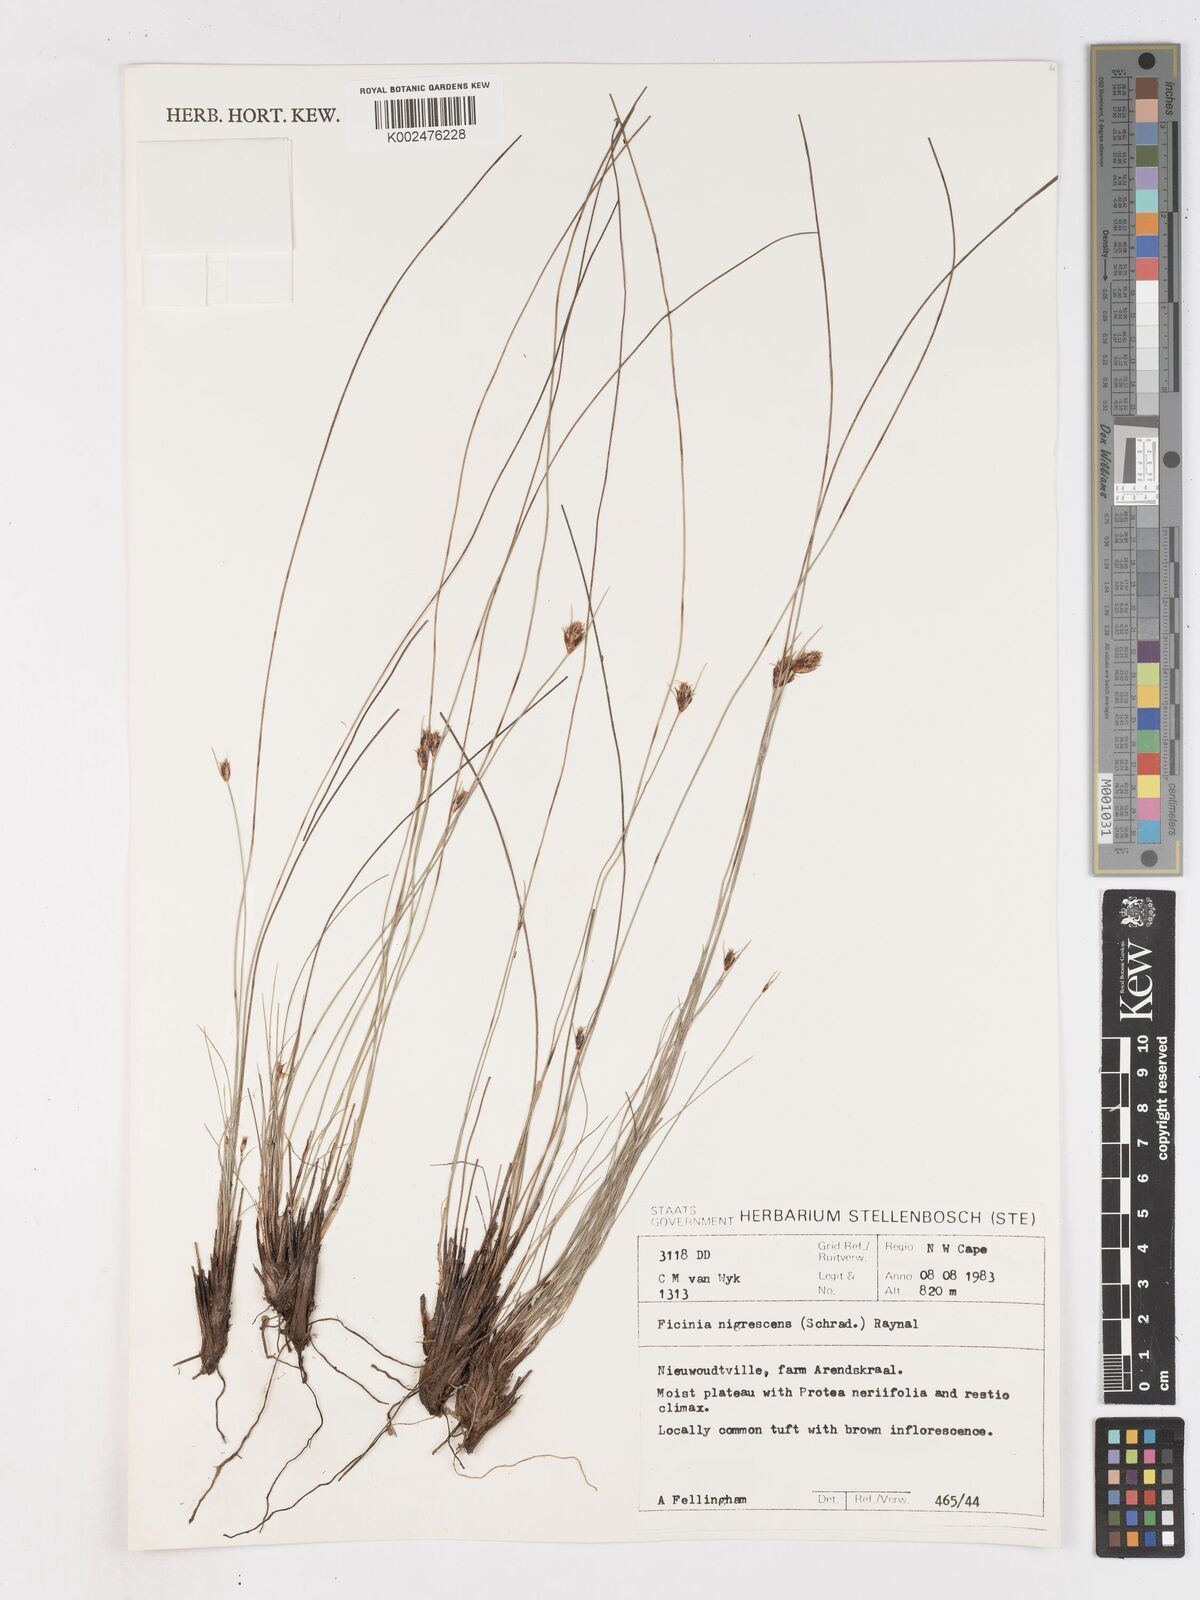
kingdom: Plantae
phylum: Tracheophyta
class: Liliopsida
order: Poales
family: Cyperaceae
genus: Ficinia
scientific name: Ficinia nigrescens
